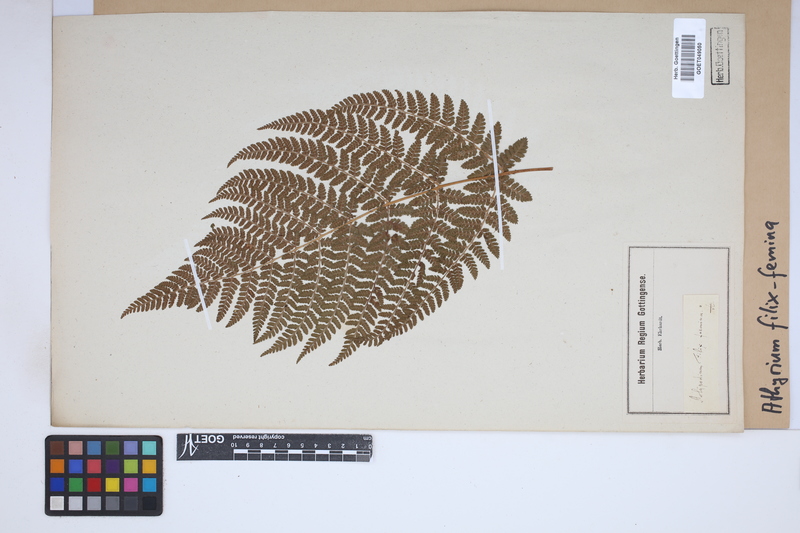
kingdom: Plantae
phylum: Tracheophyta
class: Polypodiopsida
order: Polypodiales
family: Athyriaceae
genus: Athyrium
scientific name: Athyrium filix-femina
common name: Lady fern
